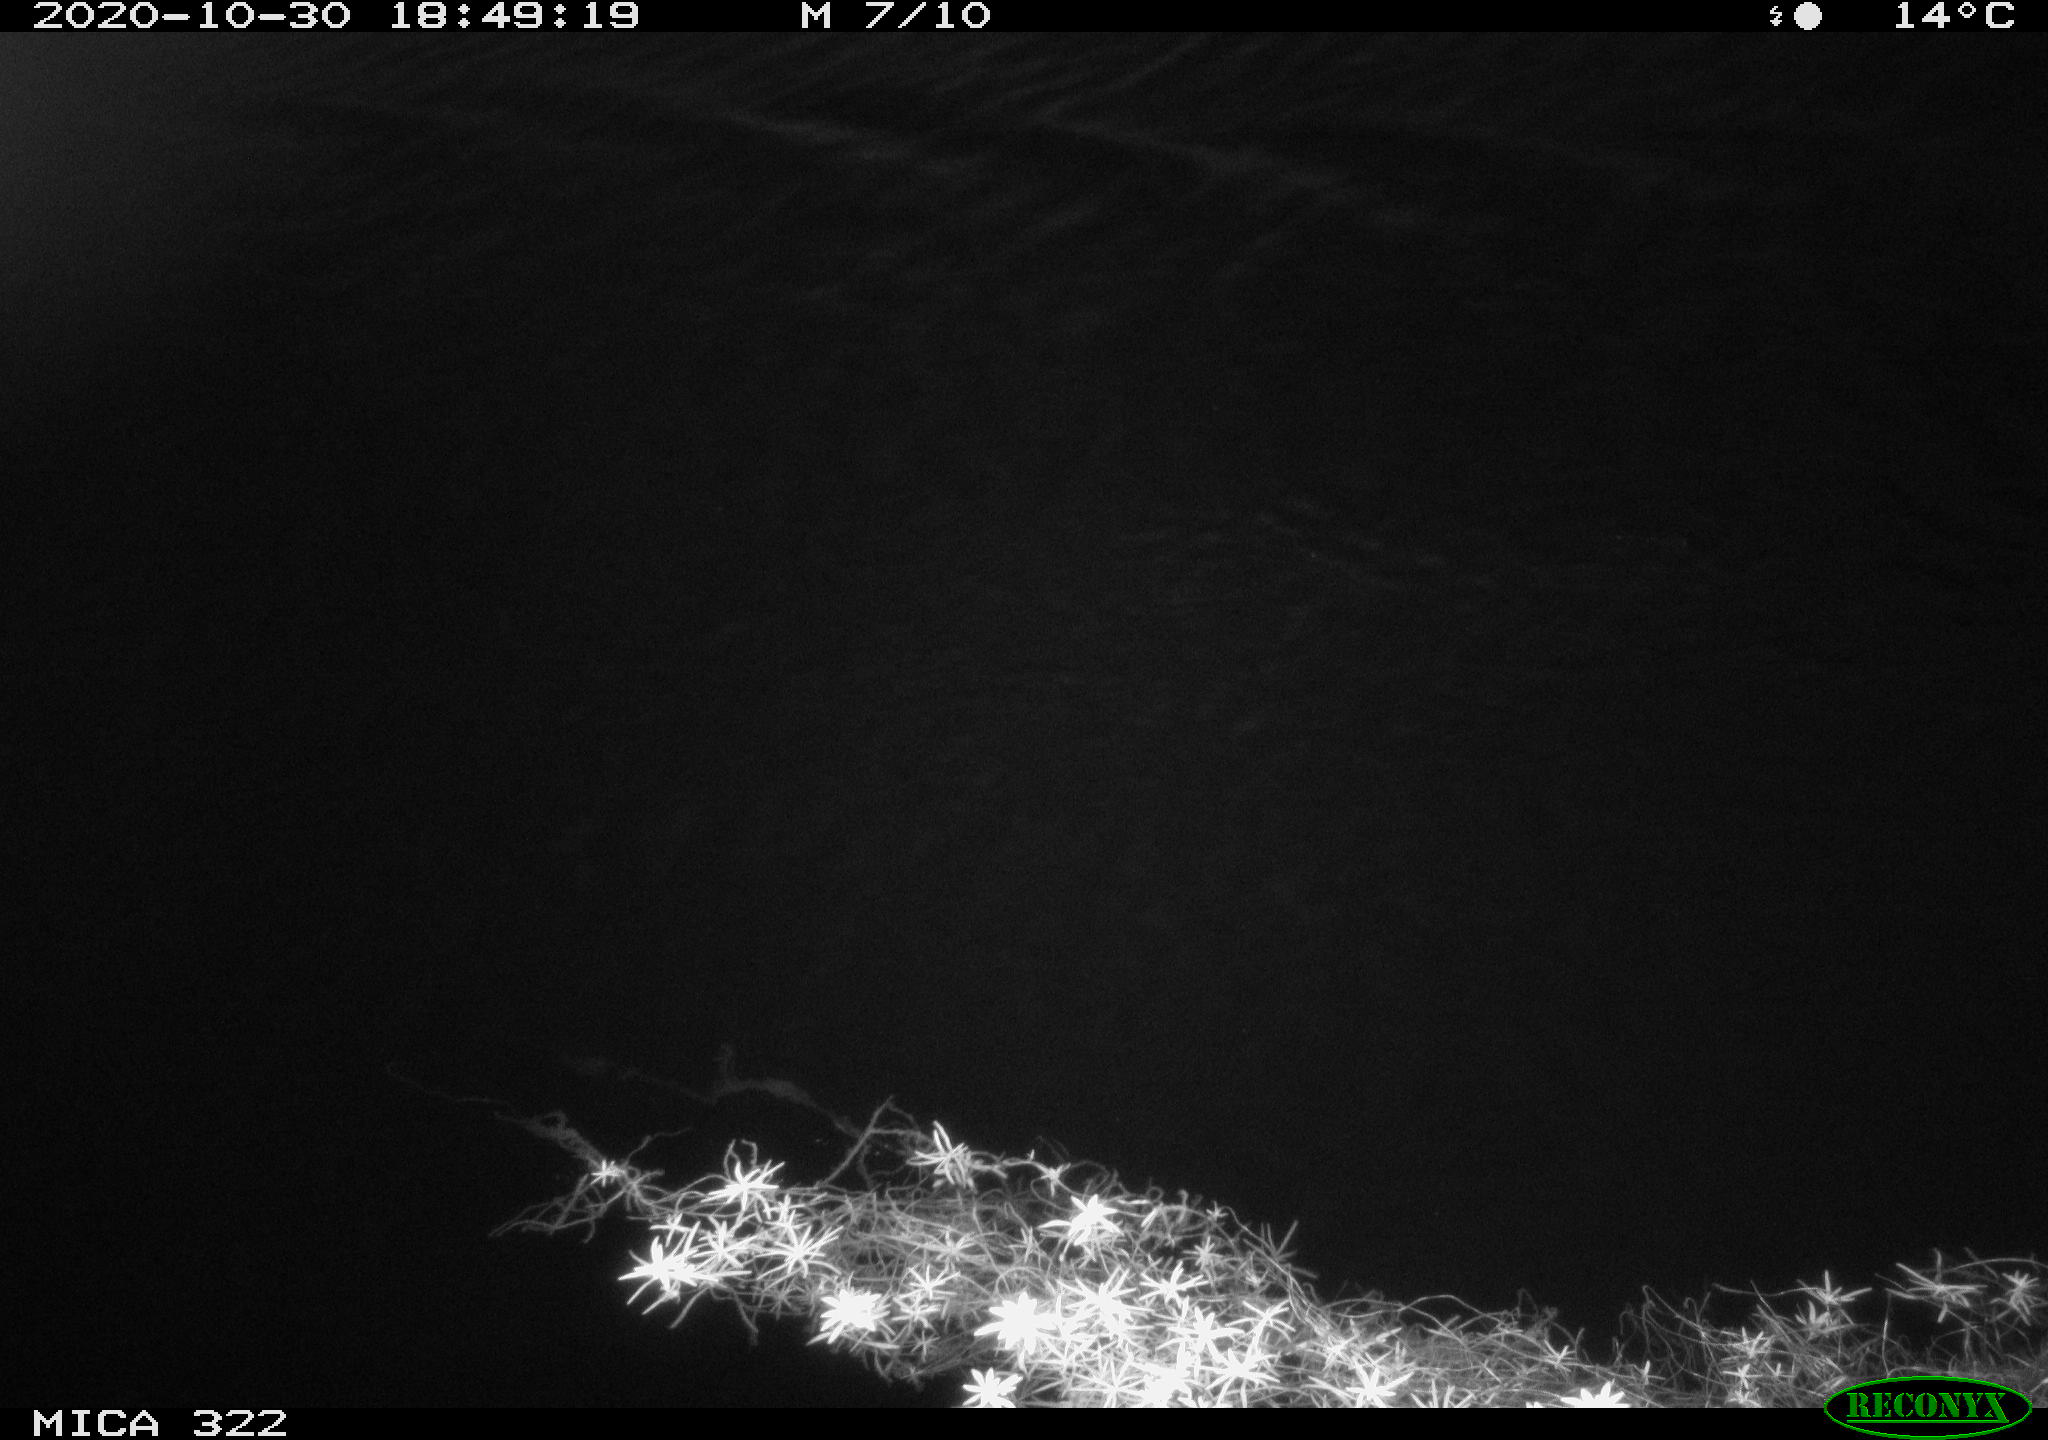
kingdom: Animalia
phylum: Chordata
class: Aves
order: Gruiformes
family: Rallidae
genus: Gallinula
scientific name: Gallinula chloropus
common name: Common moorhen
